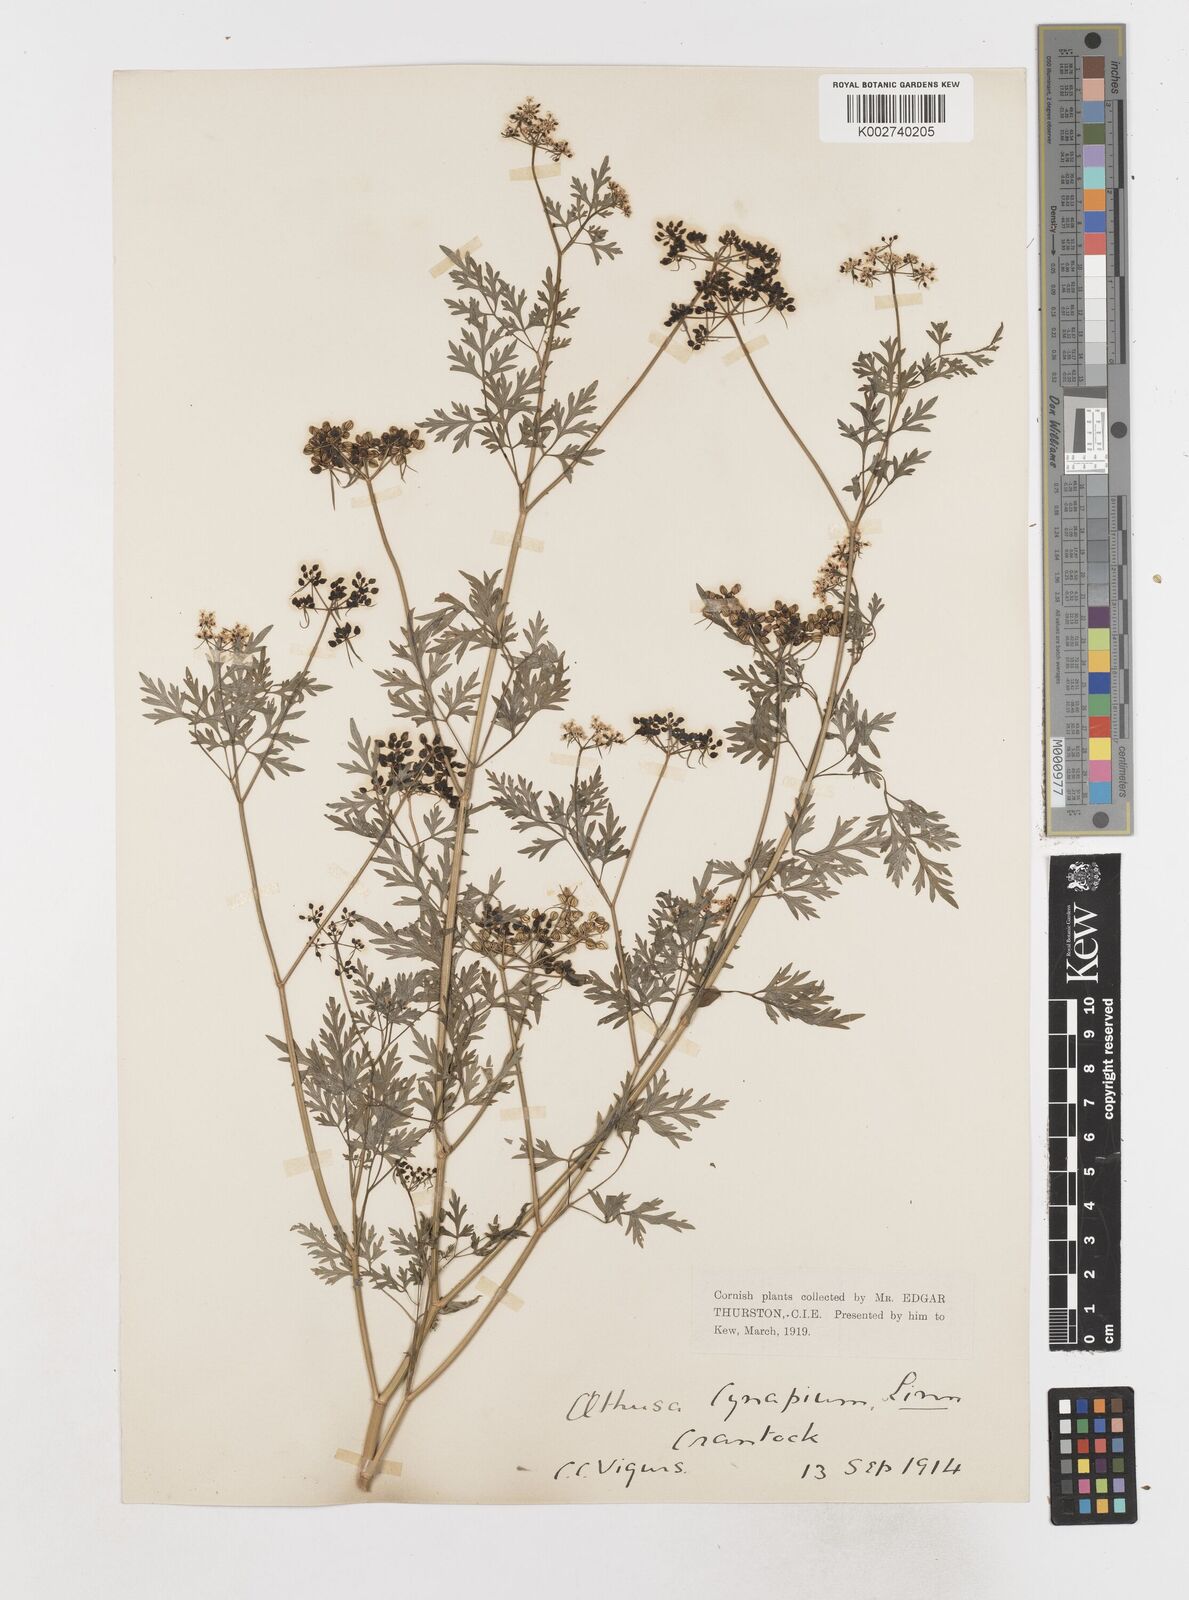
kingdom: Plantae
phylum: Tracheophyta
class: Magnoliopsida
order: Apiales
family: Apiaceae
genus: Aethusa
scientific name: Aethusa cynapium
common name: Fool's parsley
